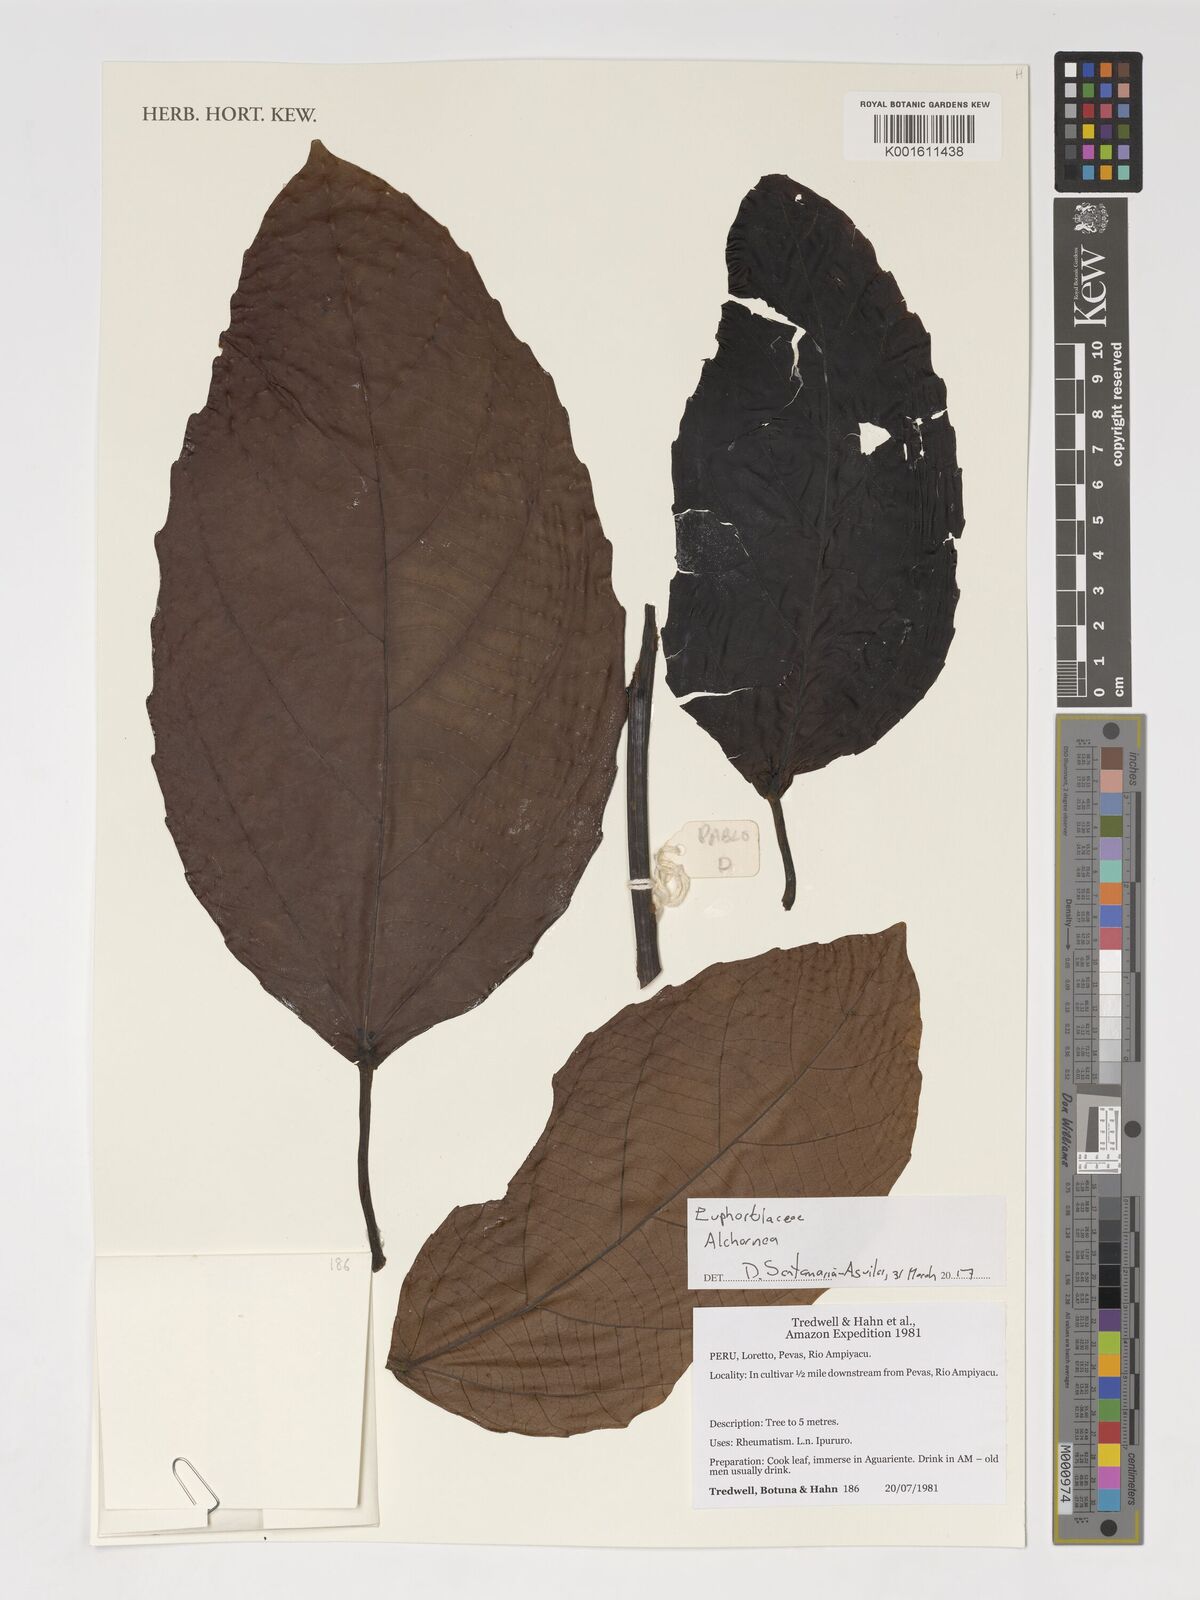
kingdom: Plantae
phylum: Tracheophyta
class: Magnoliopsida
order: Malpighiales
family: Euphorbiaceae
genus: Alchornea
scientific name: Alchornea
